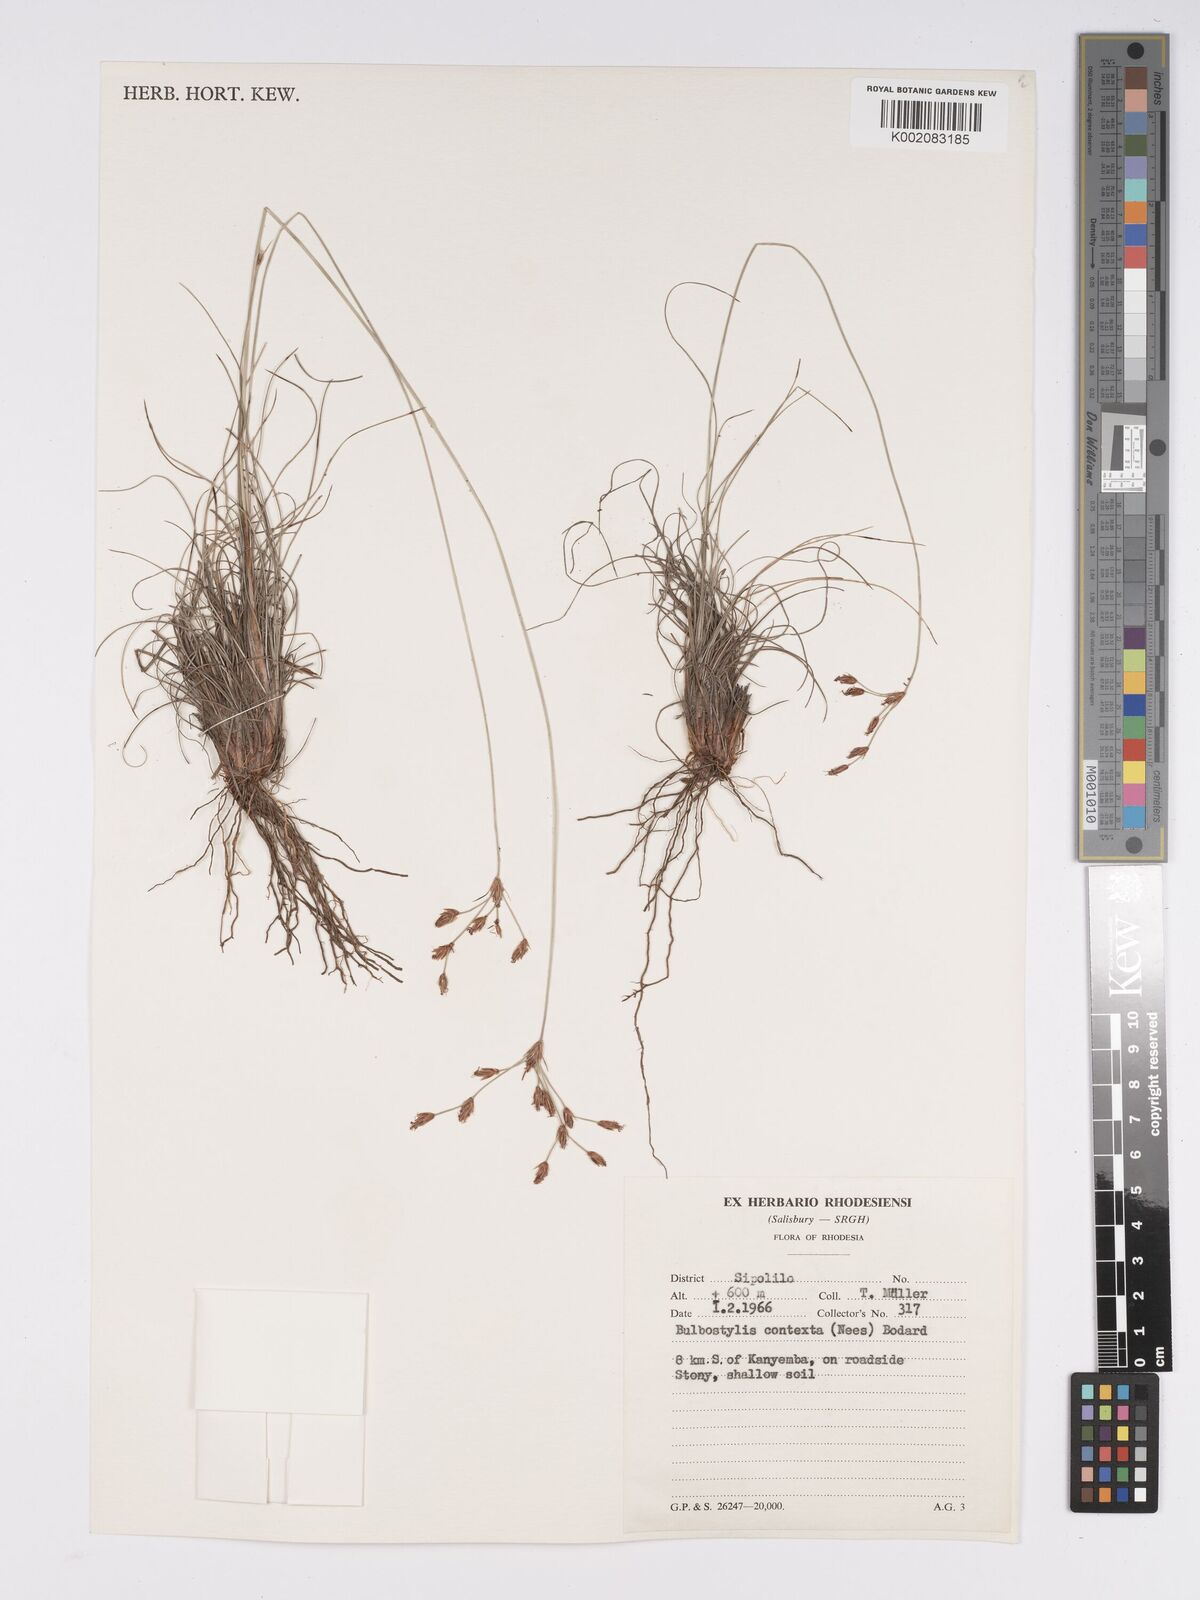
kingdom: Plantae
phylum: Tracheophyta
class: Liliopsida
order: Poales
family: Cyperaceae
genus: Bulbostylis
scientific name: Bulbostylis contexta
